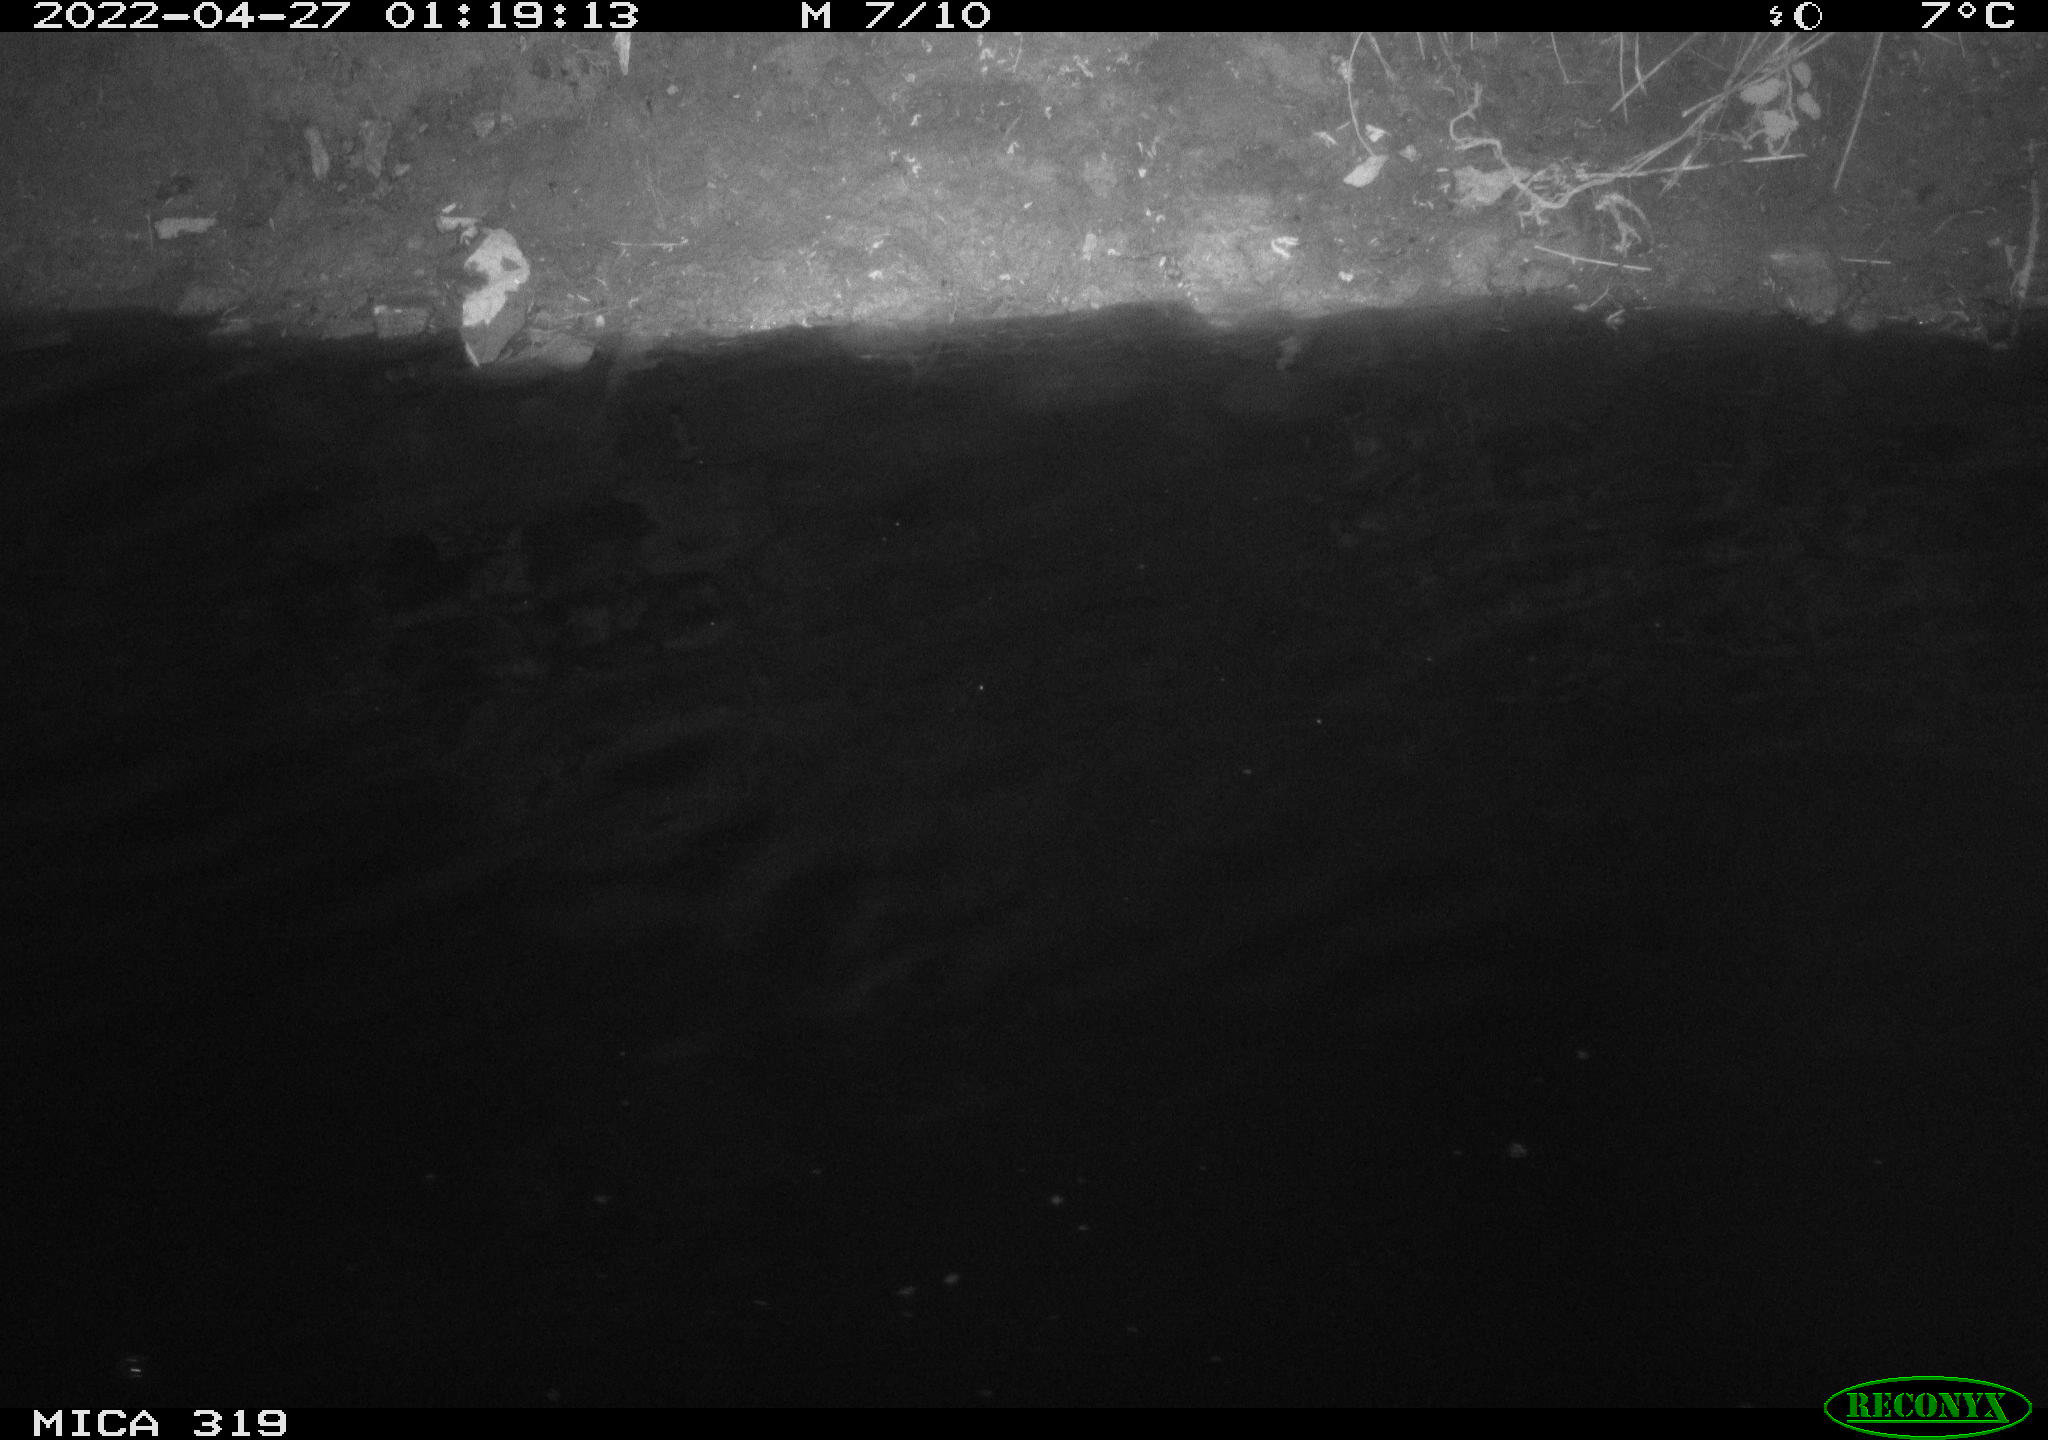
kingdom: Animalia
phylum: Chordata
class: Aves
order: Anseriformes
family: Anatidae
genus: Anas
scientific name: Anas platyrhynchos
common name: Mallard
